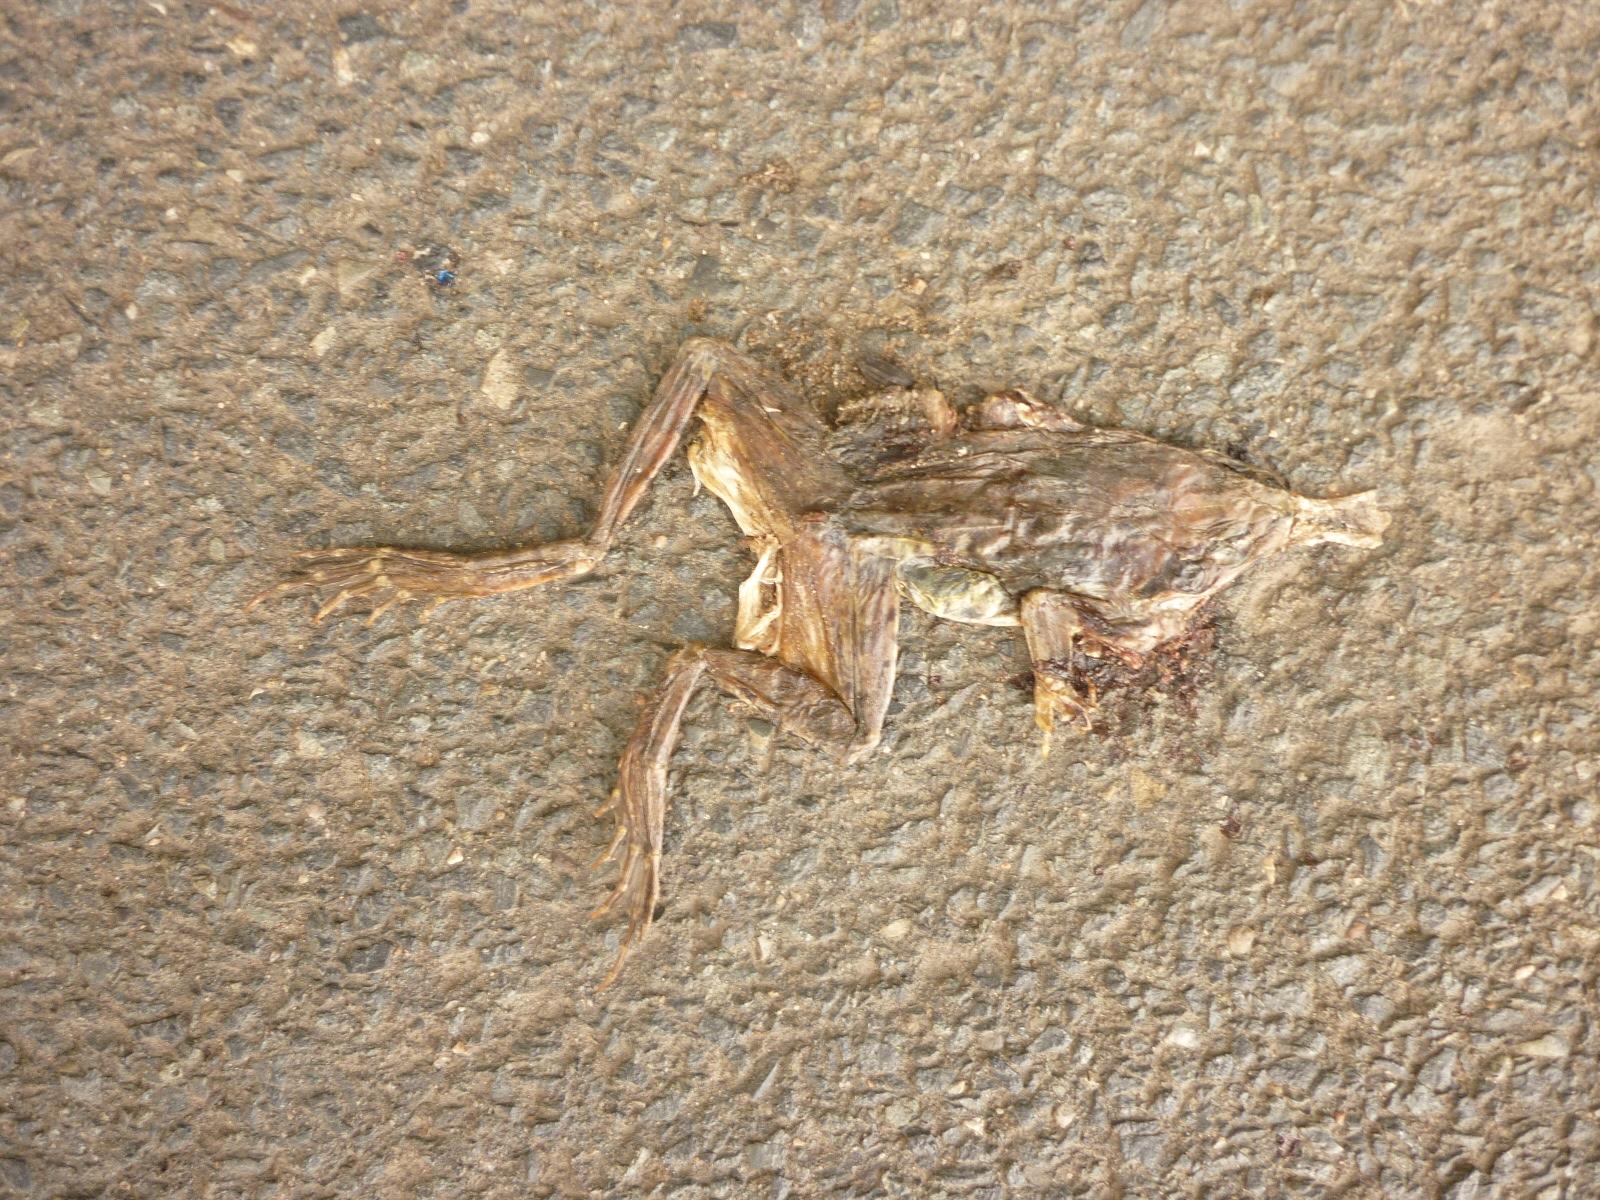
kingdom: Animalia
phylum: Chordata
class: Amphibia
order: Anura
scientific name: Anura
